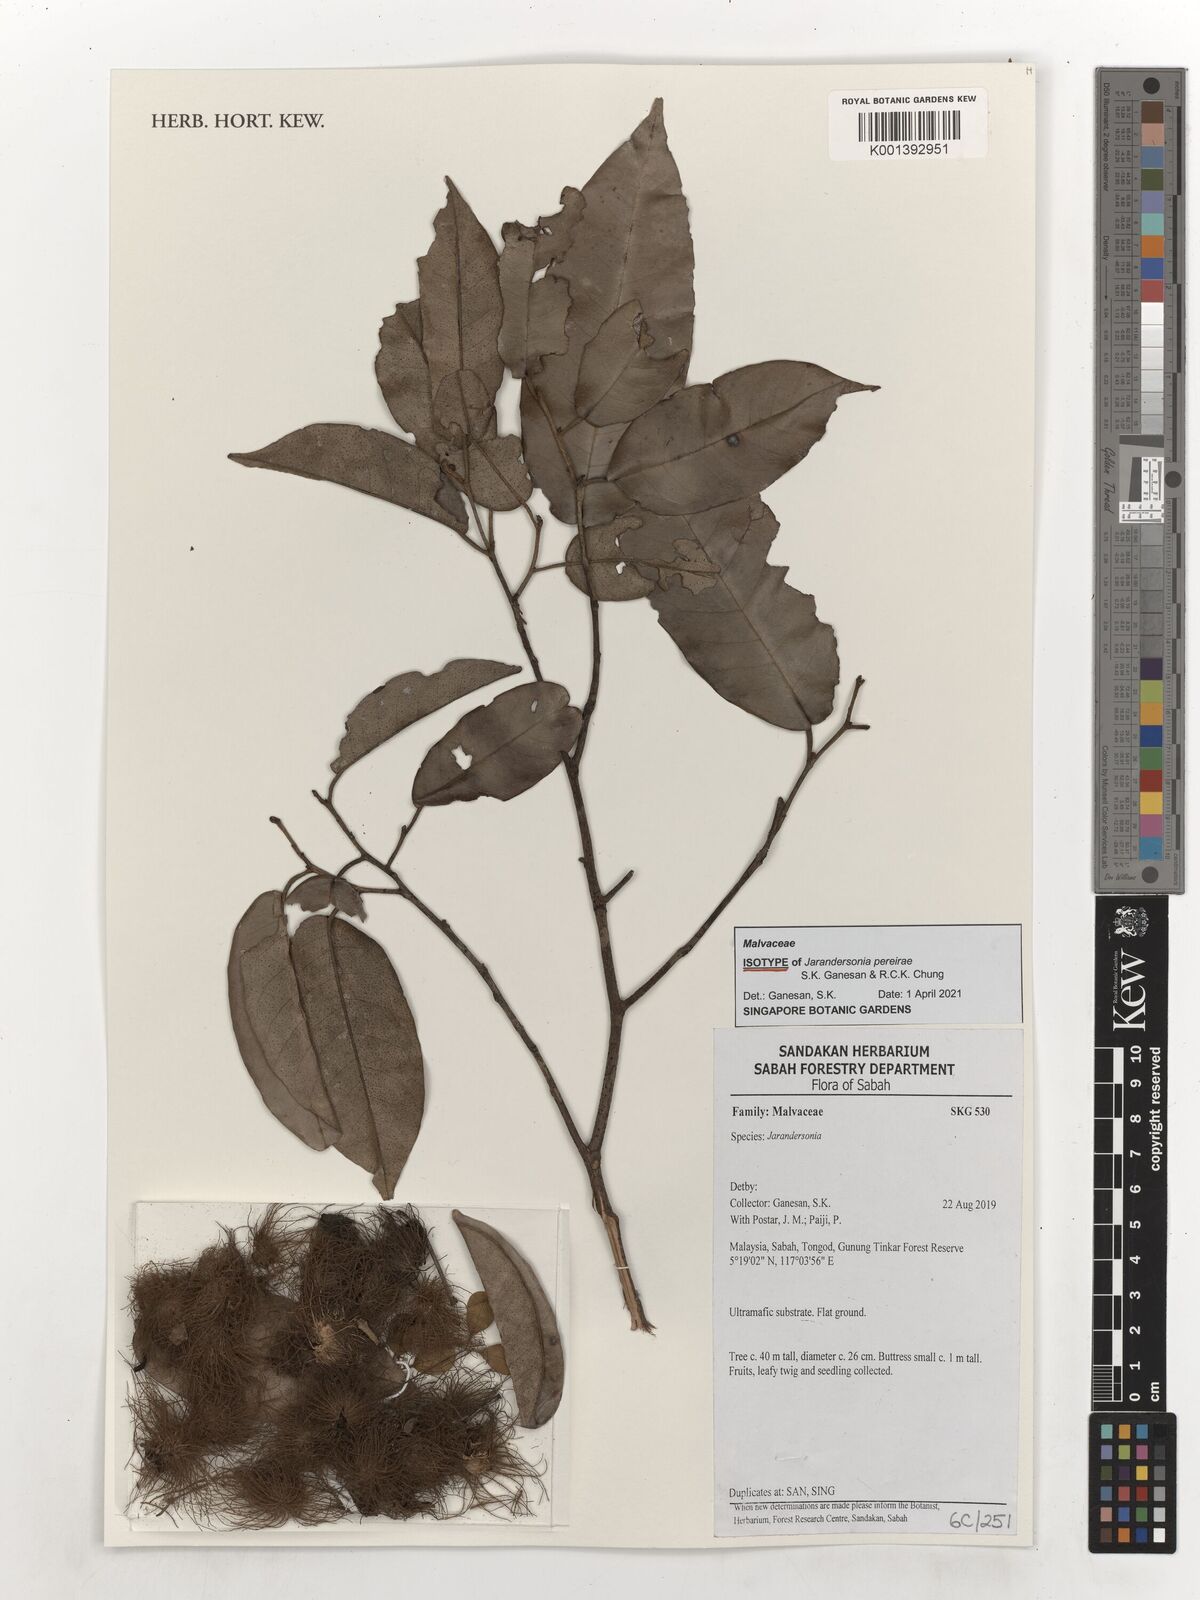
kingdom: Plantae
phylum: Tracheophyta
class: Magnoliopsida
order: Malvales
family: Malvaceae
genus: Jarandersonia
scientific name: Jarandersonia
